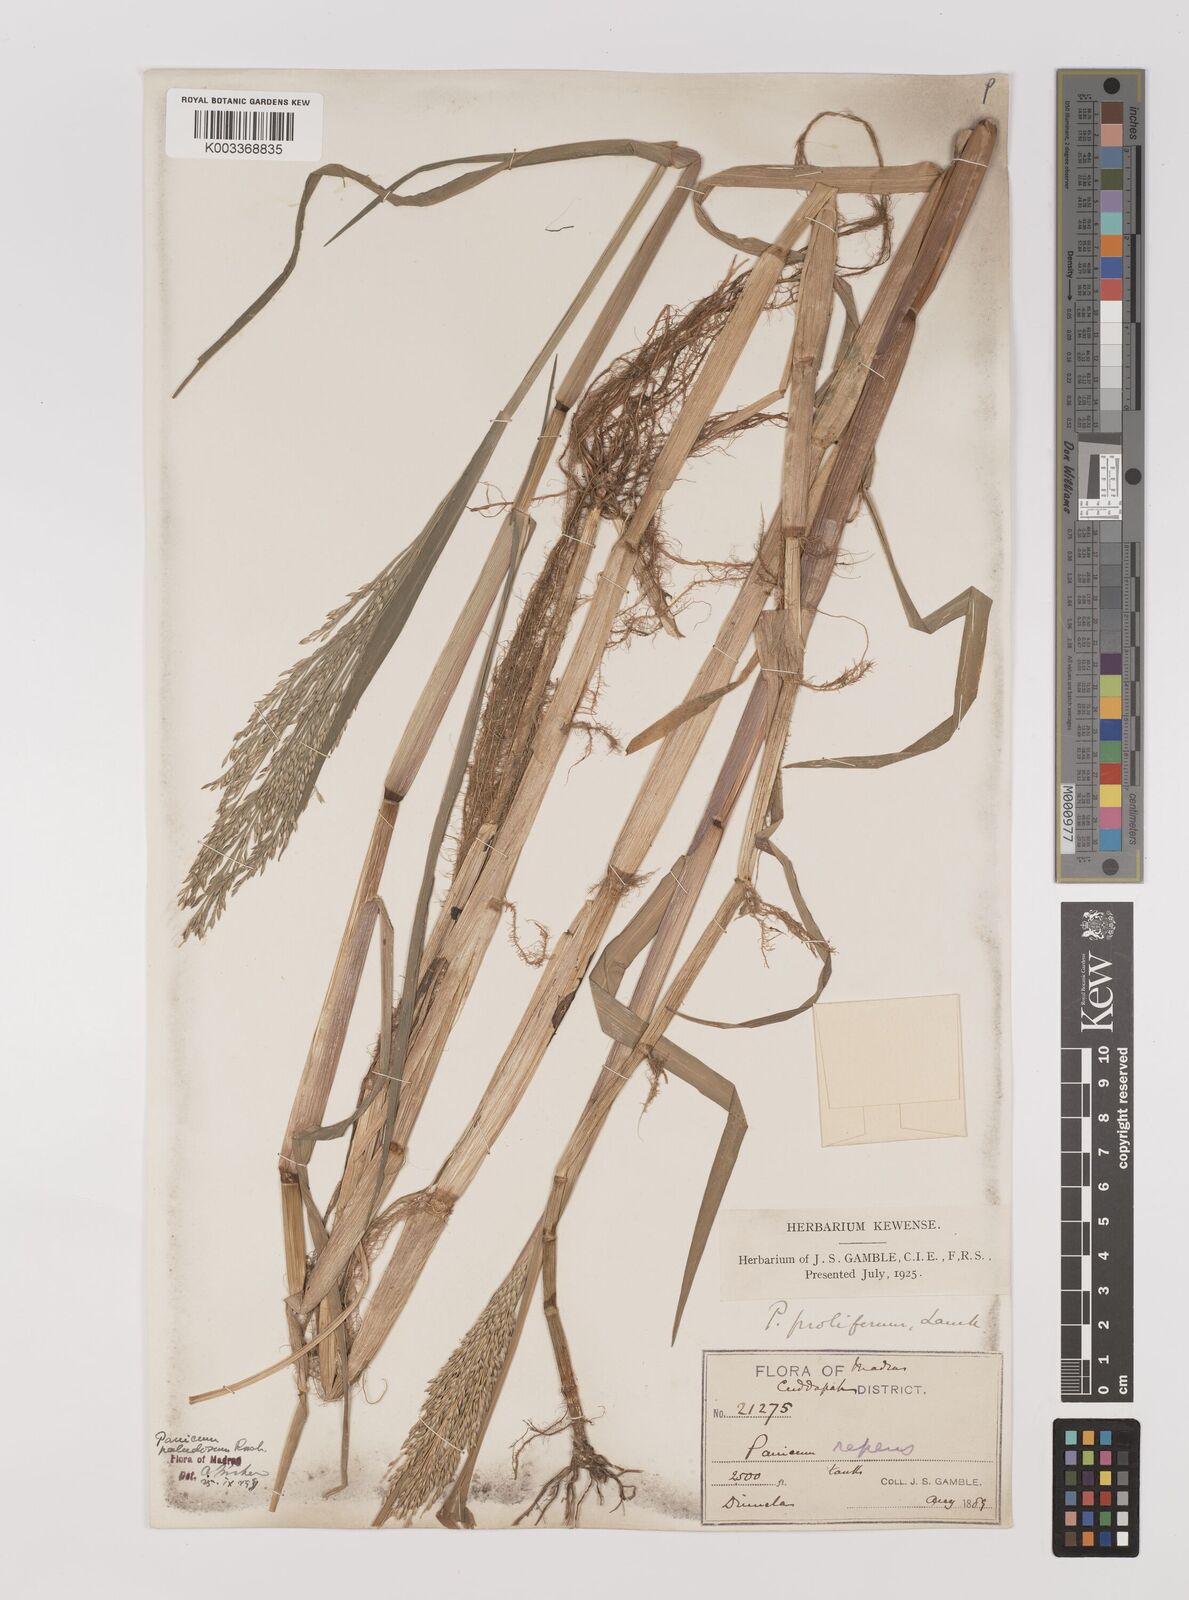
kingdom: Plantae
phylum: Tracheophyta
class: Liliopsida
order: Poales
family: Poaceae
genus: Louisiella
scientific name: Louisiella paludosa
